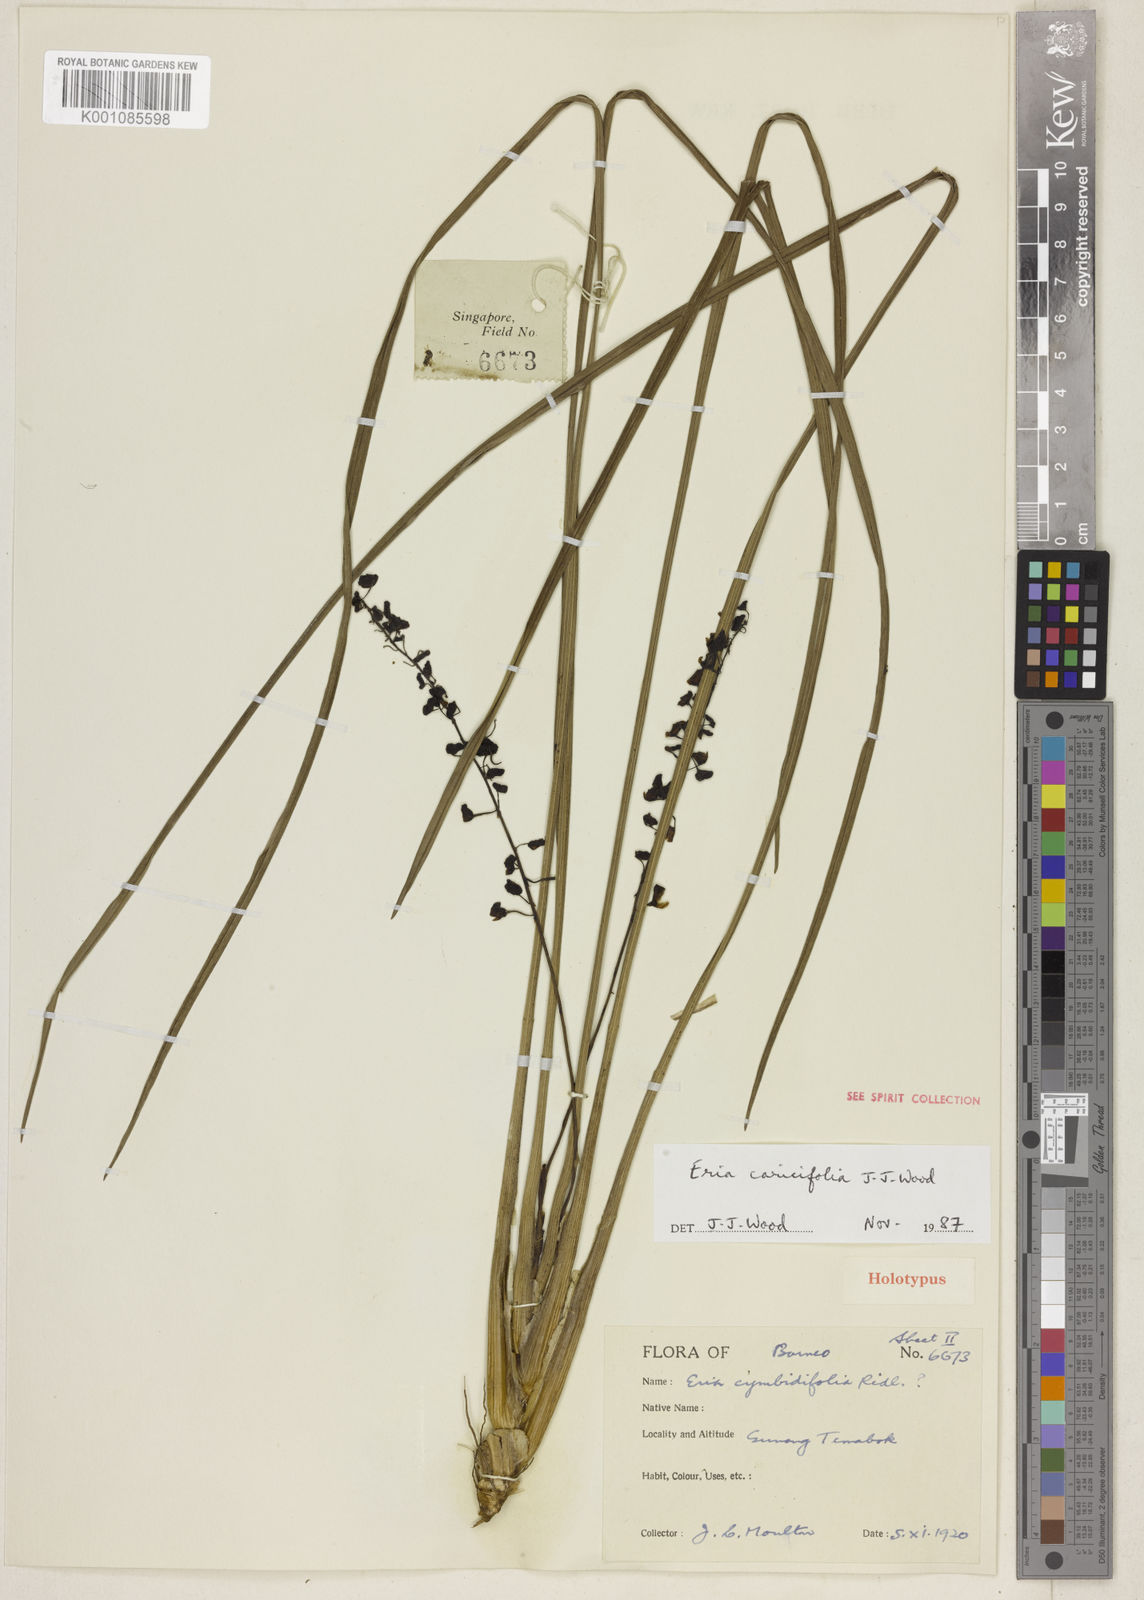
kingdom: Plantae
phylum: Tracheophyta
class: Liliopsida
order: Asparagales
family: Orchidaceae
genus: Cymboglossum
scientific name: Cymboglossum caricifolium
